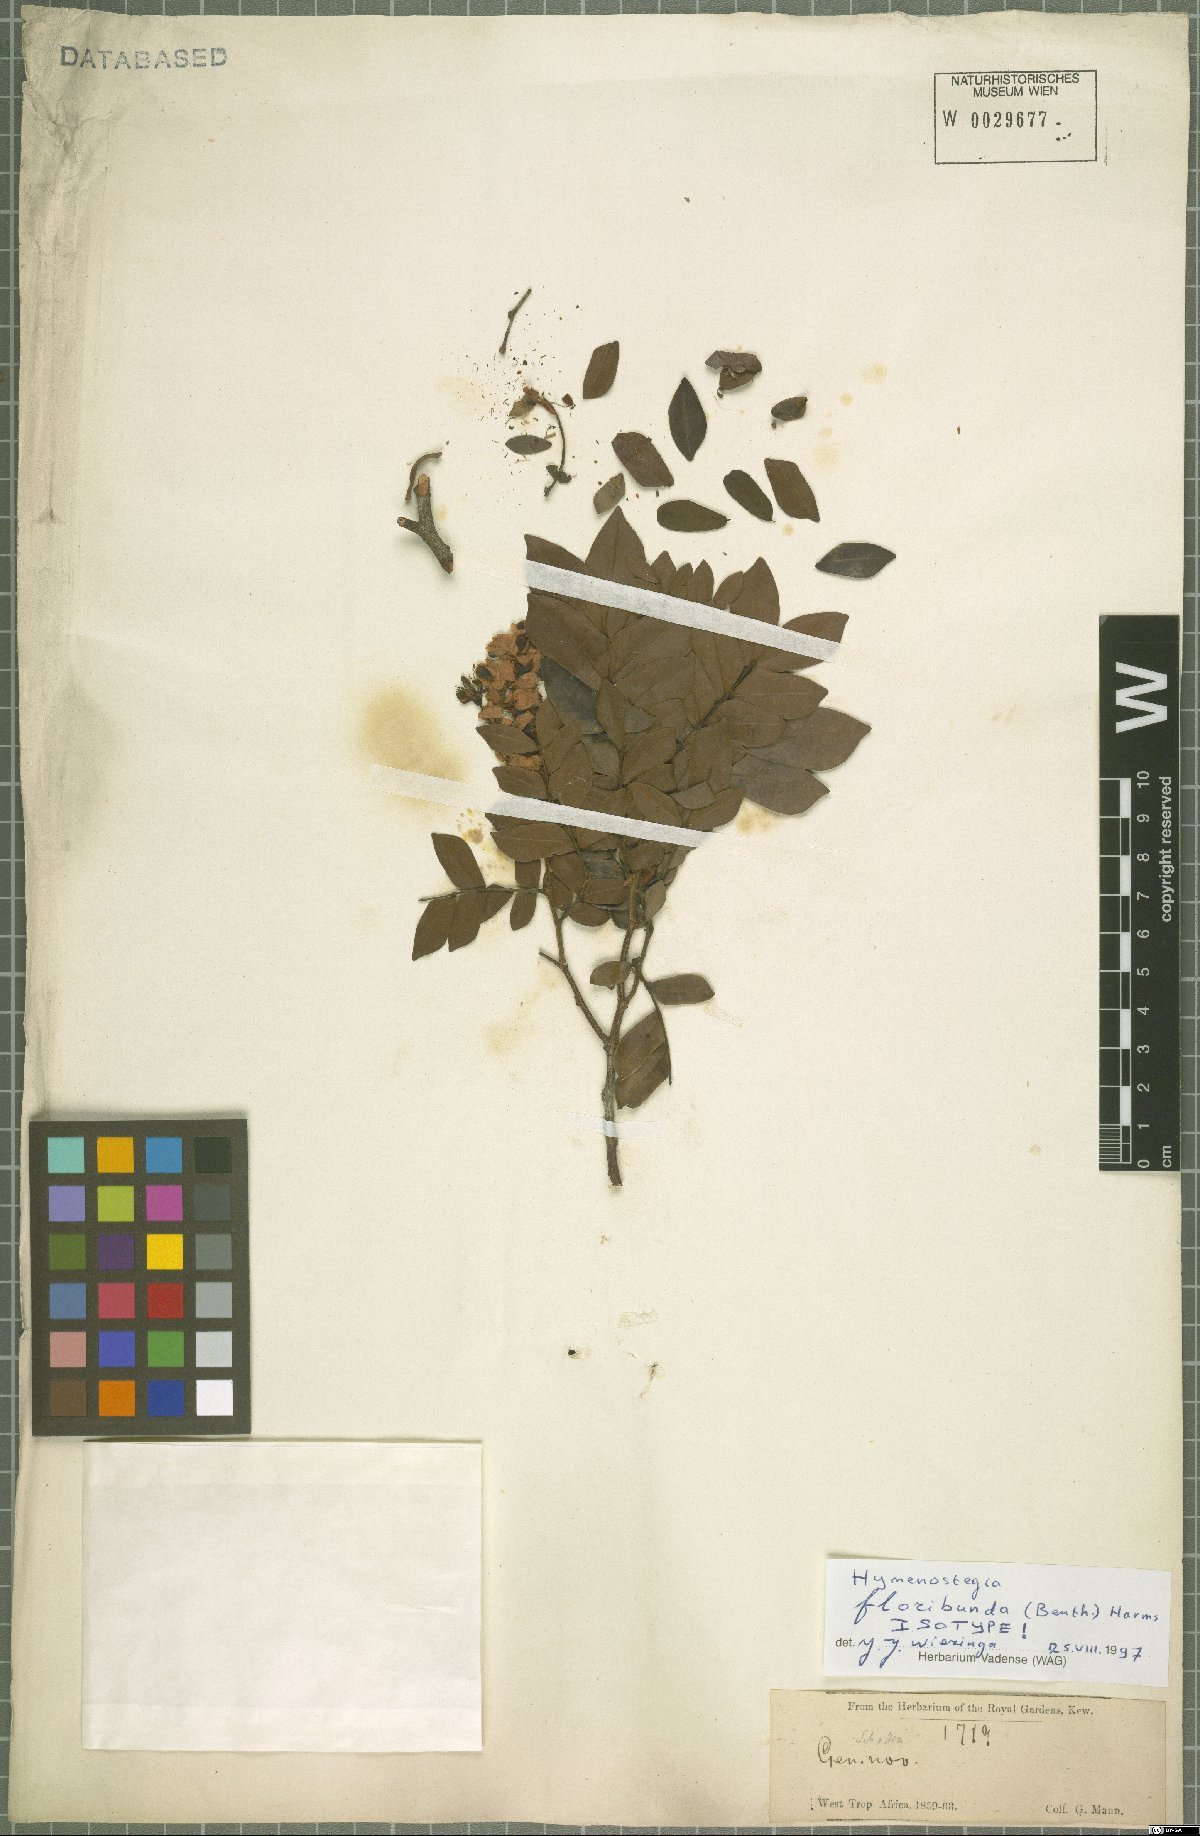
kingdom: Plantae
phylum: Tracheophyta
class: Magnoliopsida
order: Fabales
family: Fabaceae
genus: Hymenostegia
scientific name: Hymenostegia floribunda
